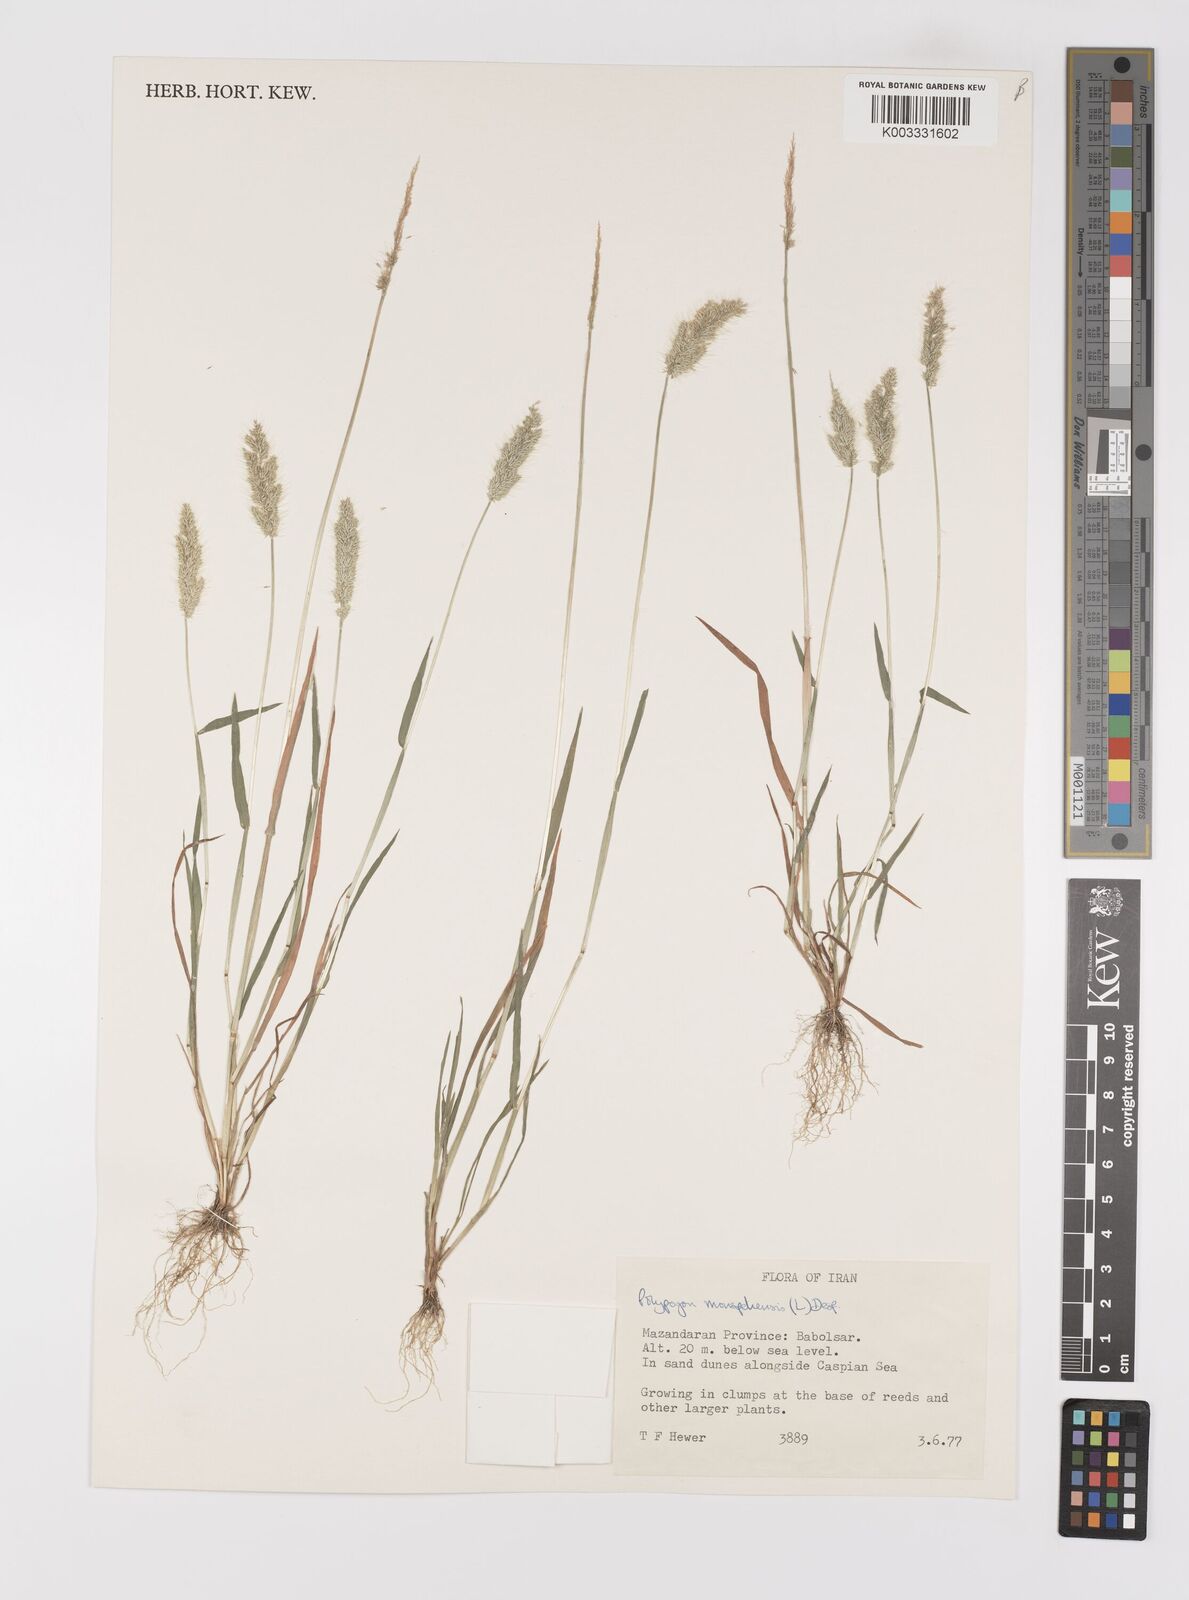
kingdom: Plantae
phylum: Tracheophyta
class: Liliopsida
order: Poales
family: Poaceae
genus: Polypogon
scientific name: Polypogon monspeliensis
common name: Annual rabbitsfoot grass
